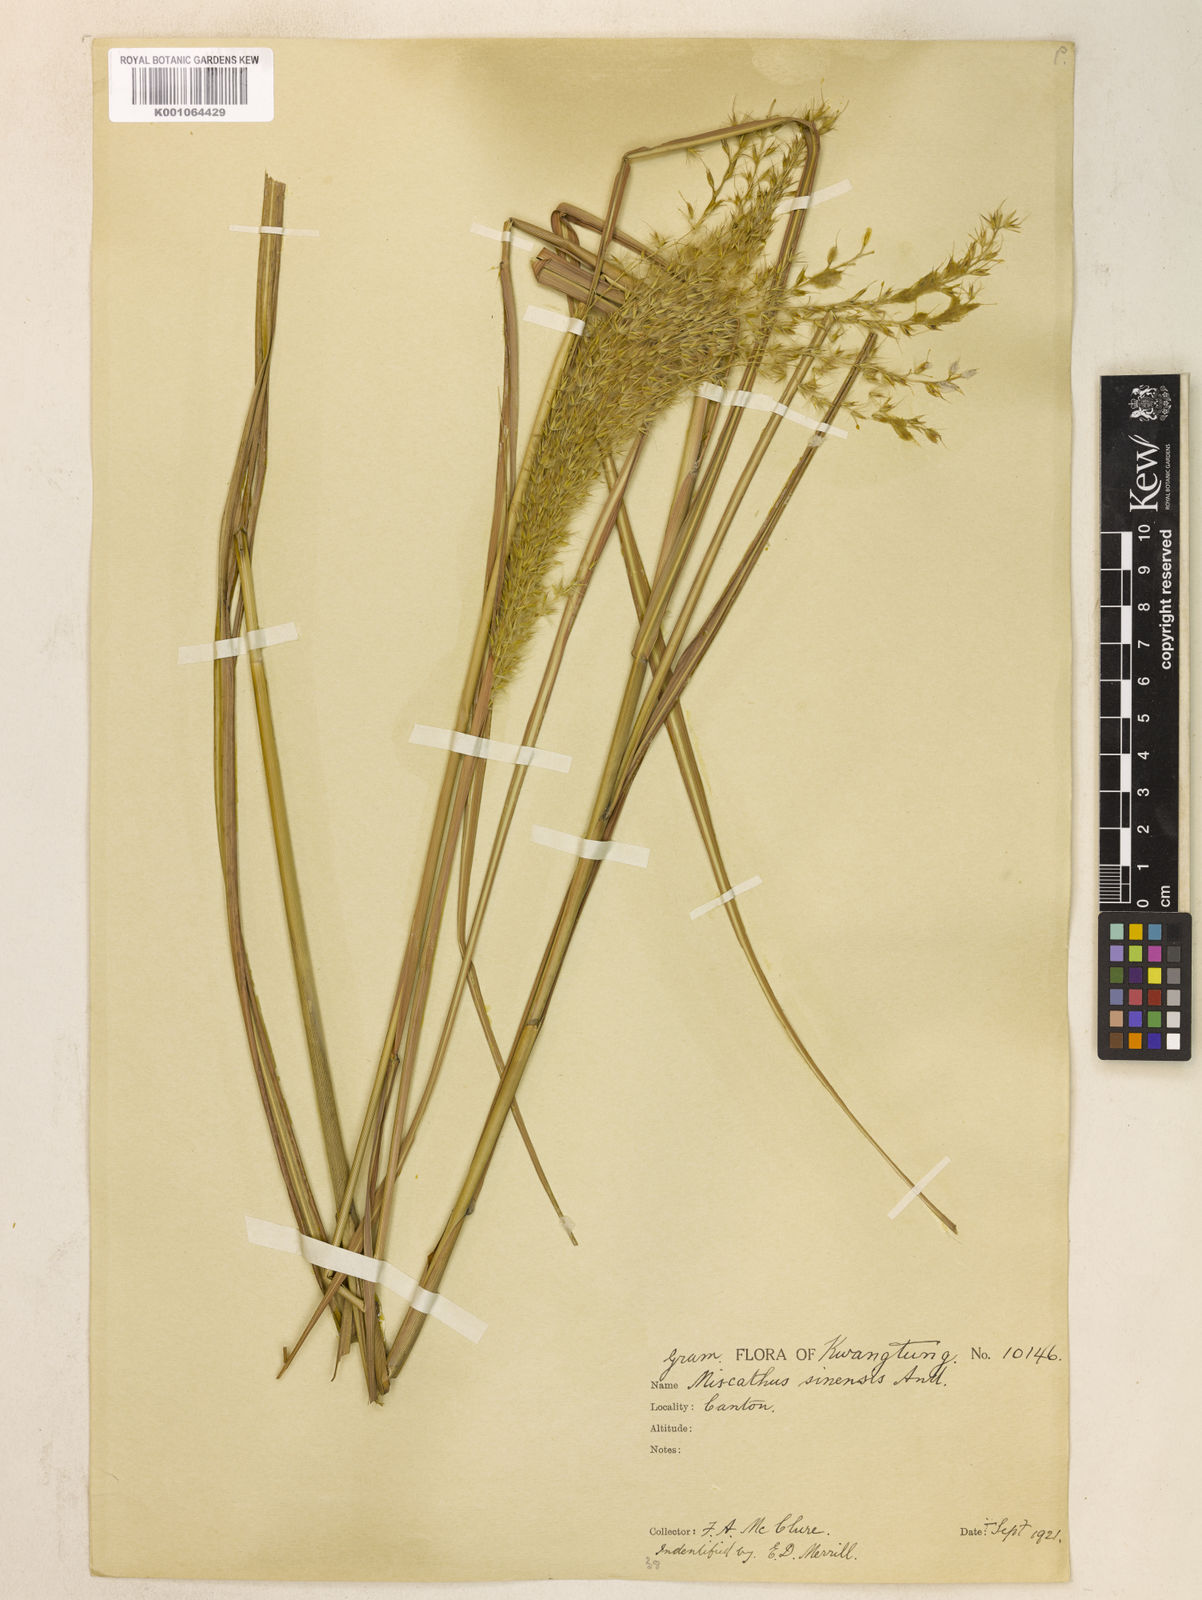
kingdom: Plantae
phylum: Tracheophyta
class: Liliopsida
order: Poales
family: Poaceae
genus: Miscanthus
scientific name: Miscanthus sinensis
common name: Chinese silvergrass
